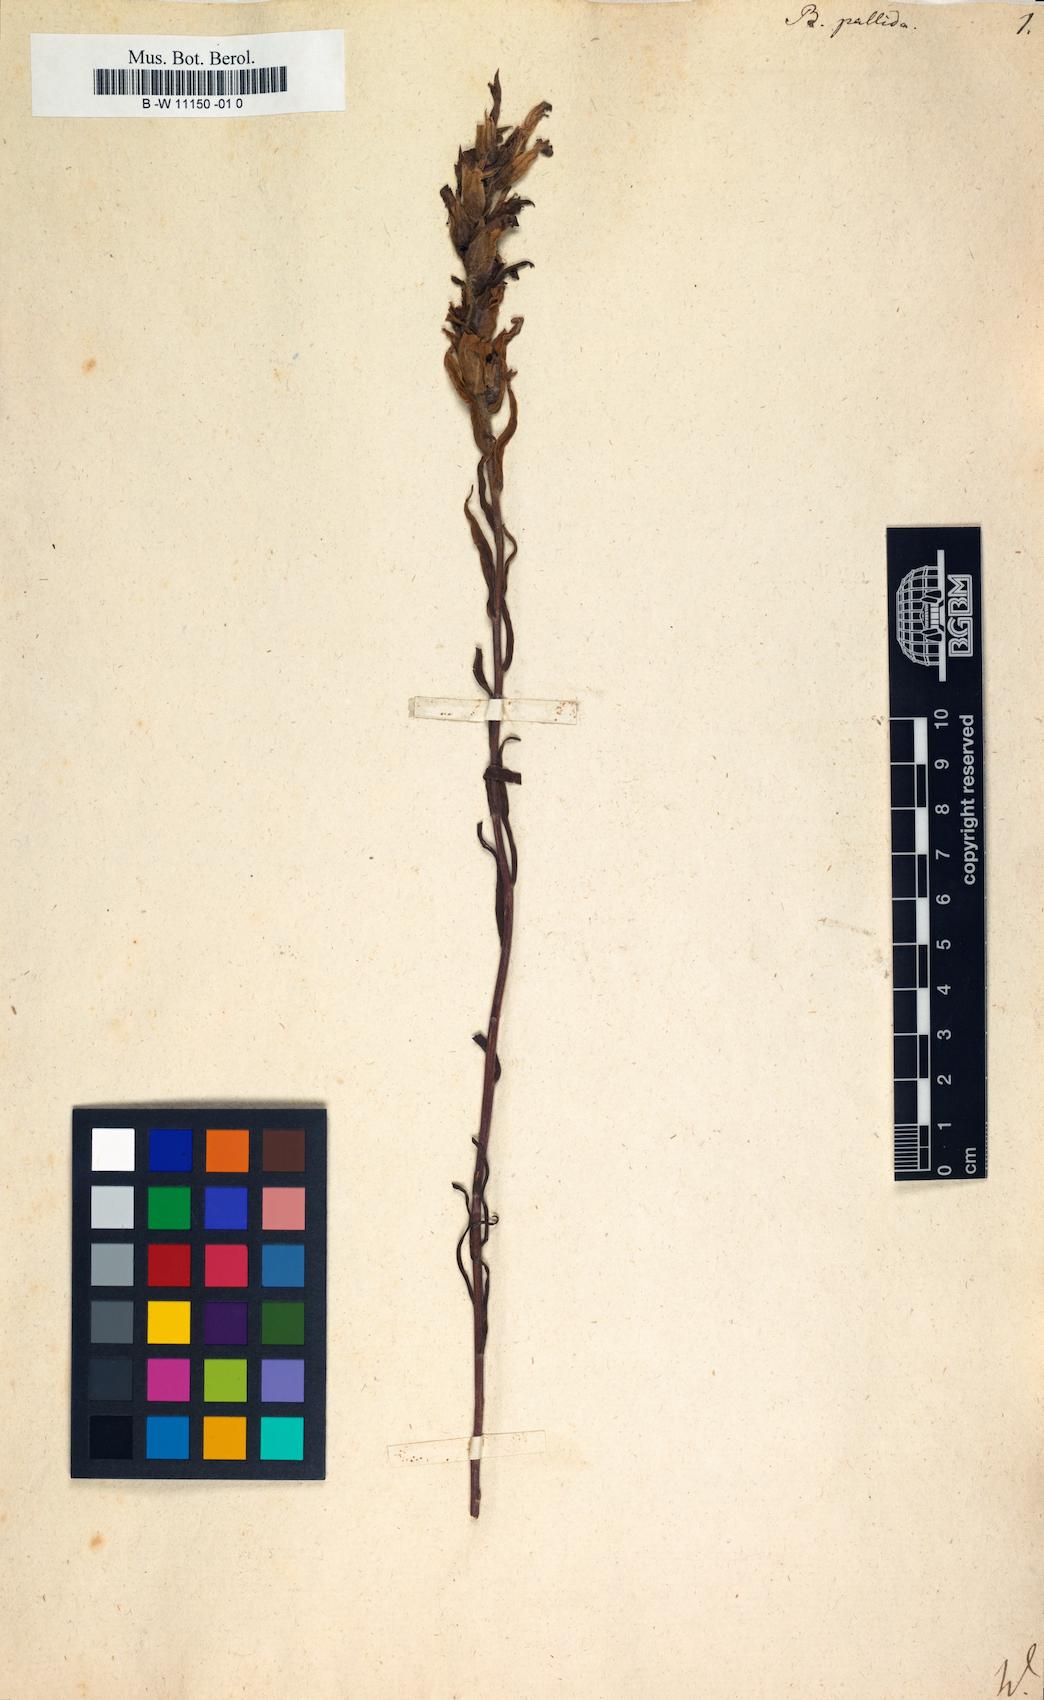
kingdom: Plantae
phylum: Tracheophyta
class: Magnoliopsida
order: Lamiales
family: Orobanchaceae
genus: Castilleja
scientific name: Castilleja pallida
